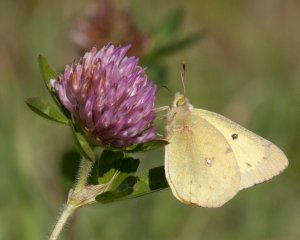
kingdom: Animalia
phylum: Arthropoda
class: Insecta
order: Lepidoptera
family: Pieridae
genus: Colias
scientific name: Colias philodice
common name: Clouded Sulphur
